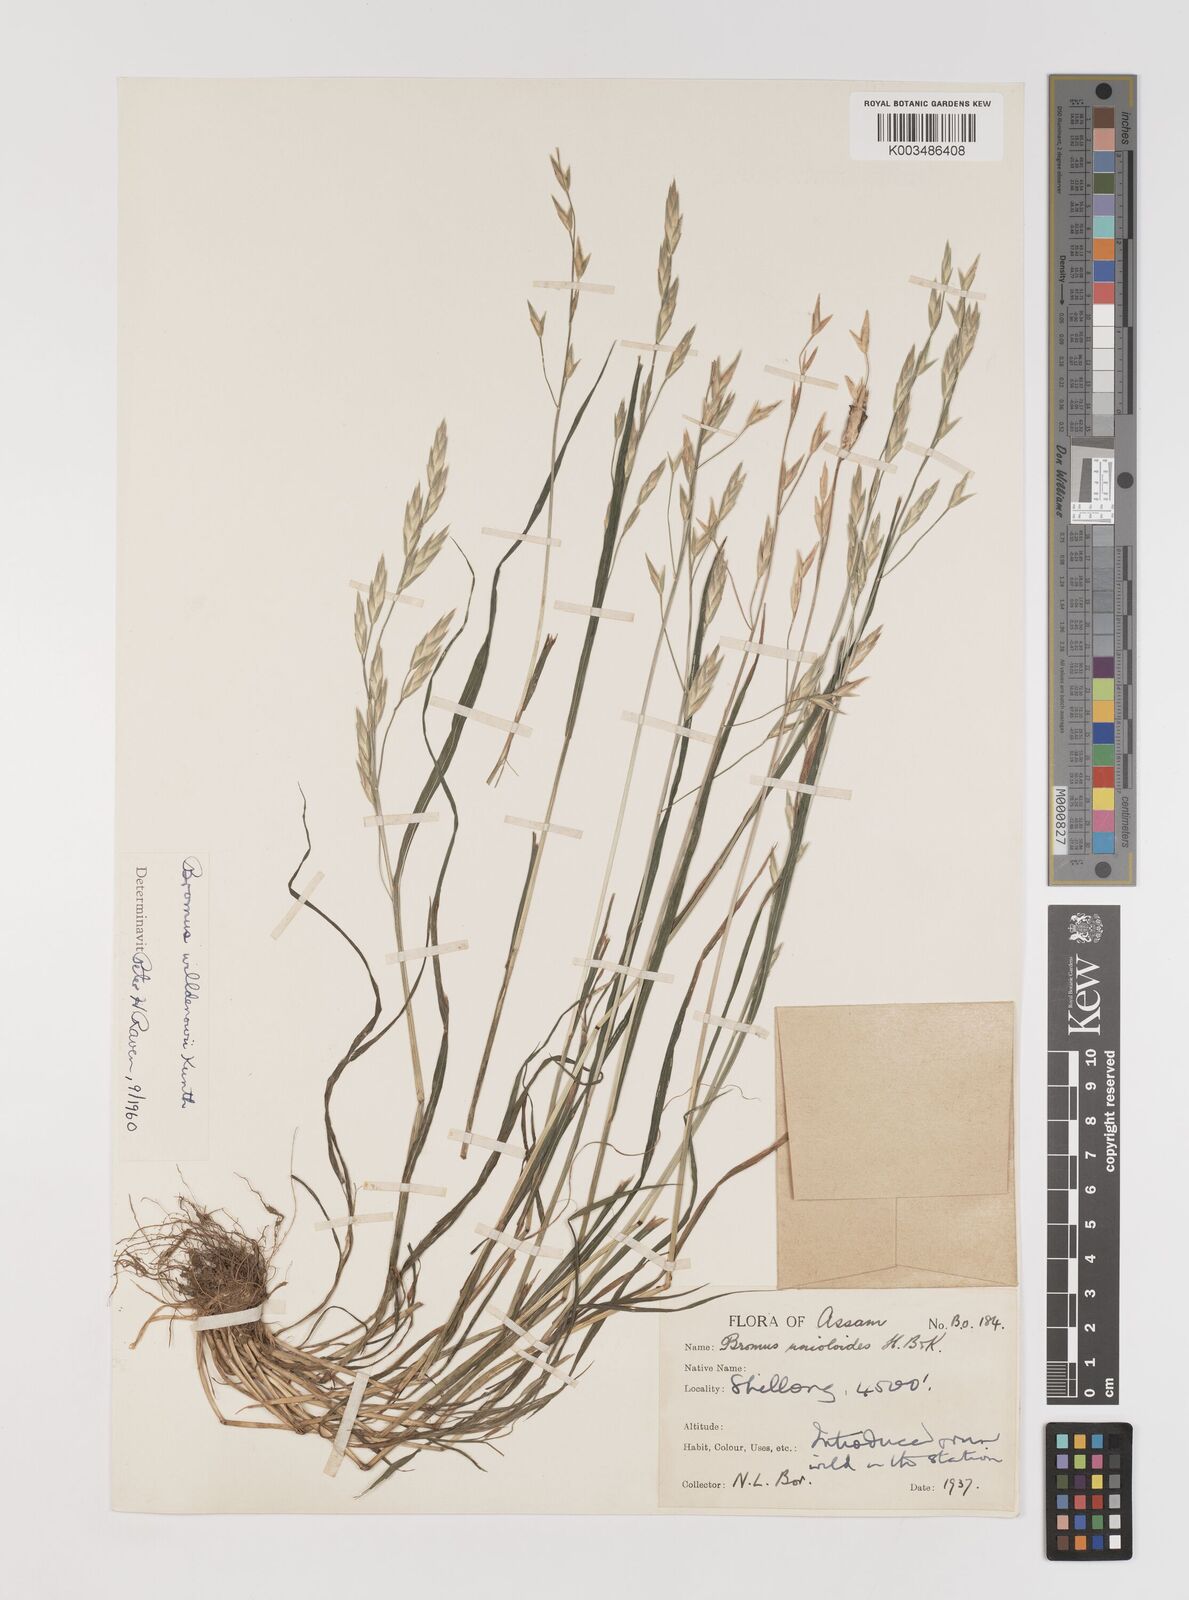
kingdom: Plantae
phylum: Tracheophyta
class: Liliopsida
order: Poales
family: Poaceae
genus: Bromus
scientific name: Bromus catharticus
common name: Rescuegrass
